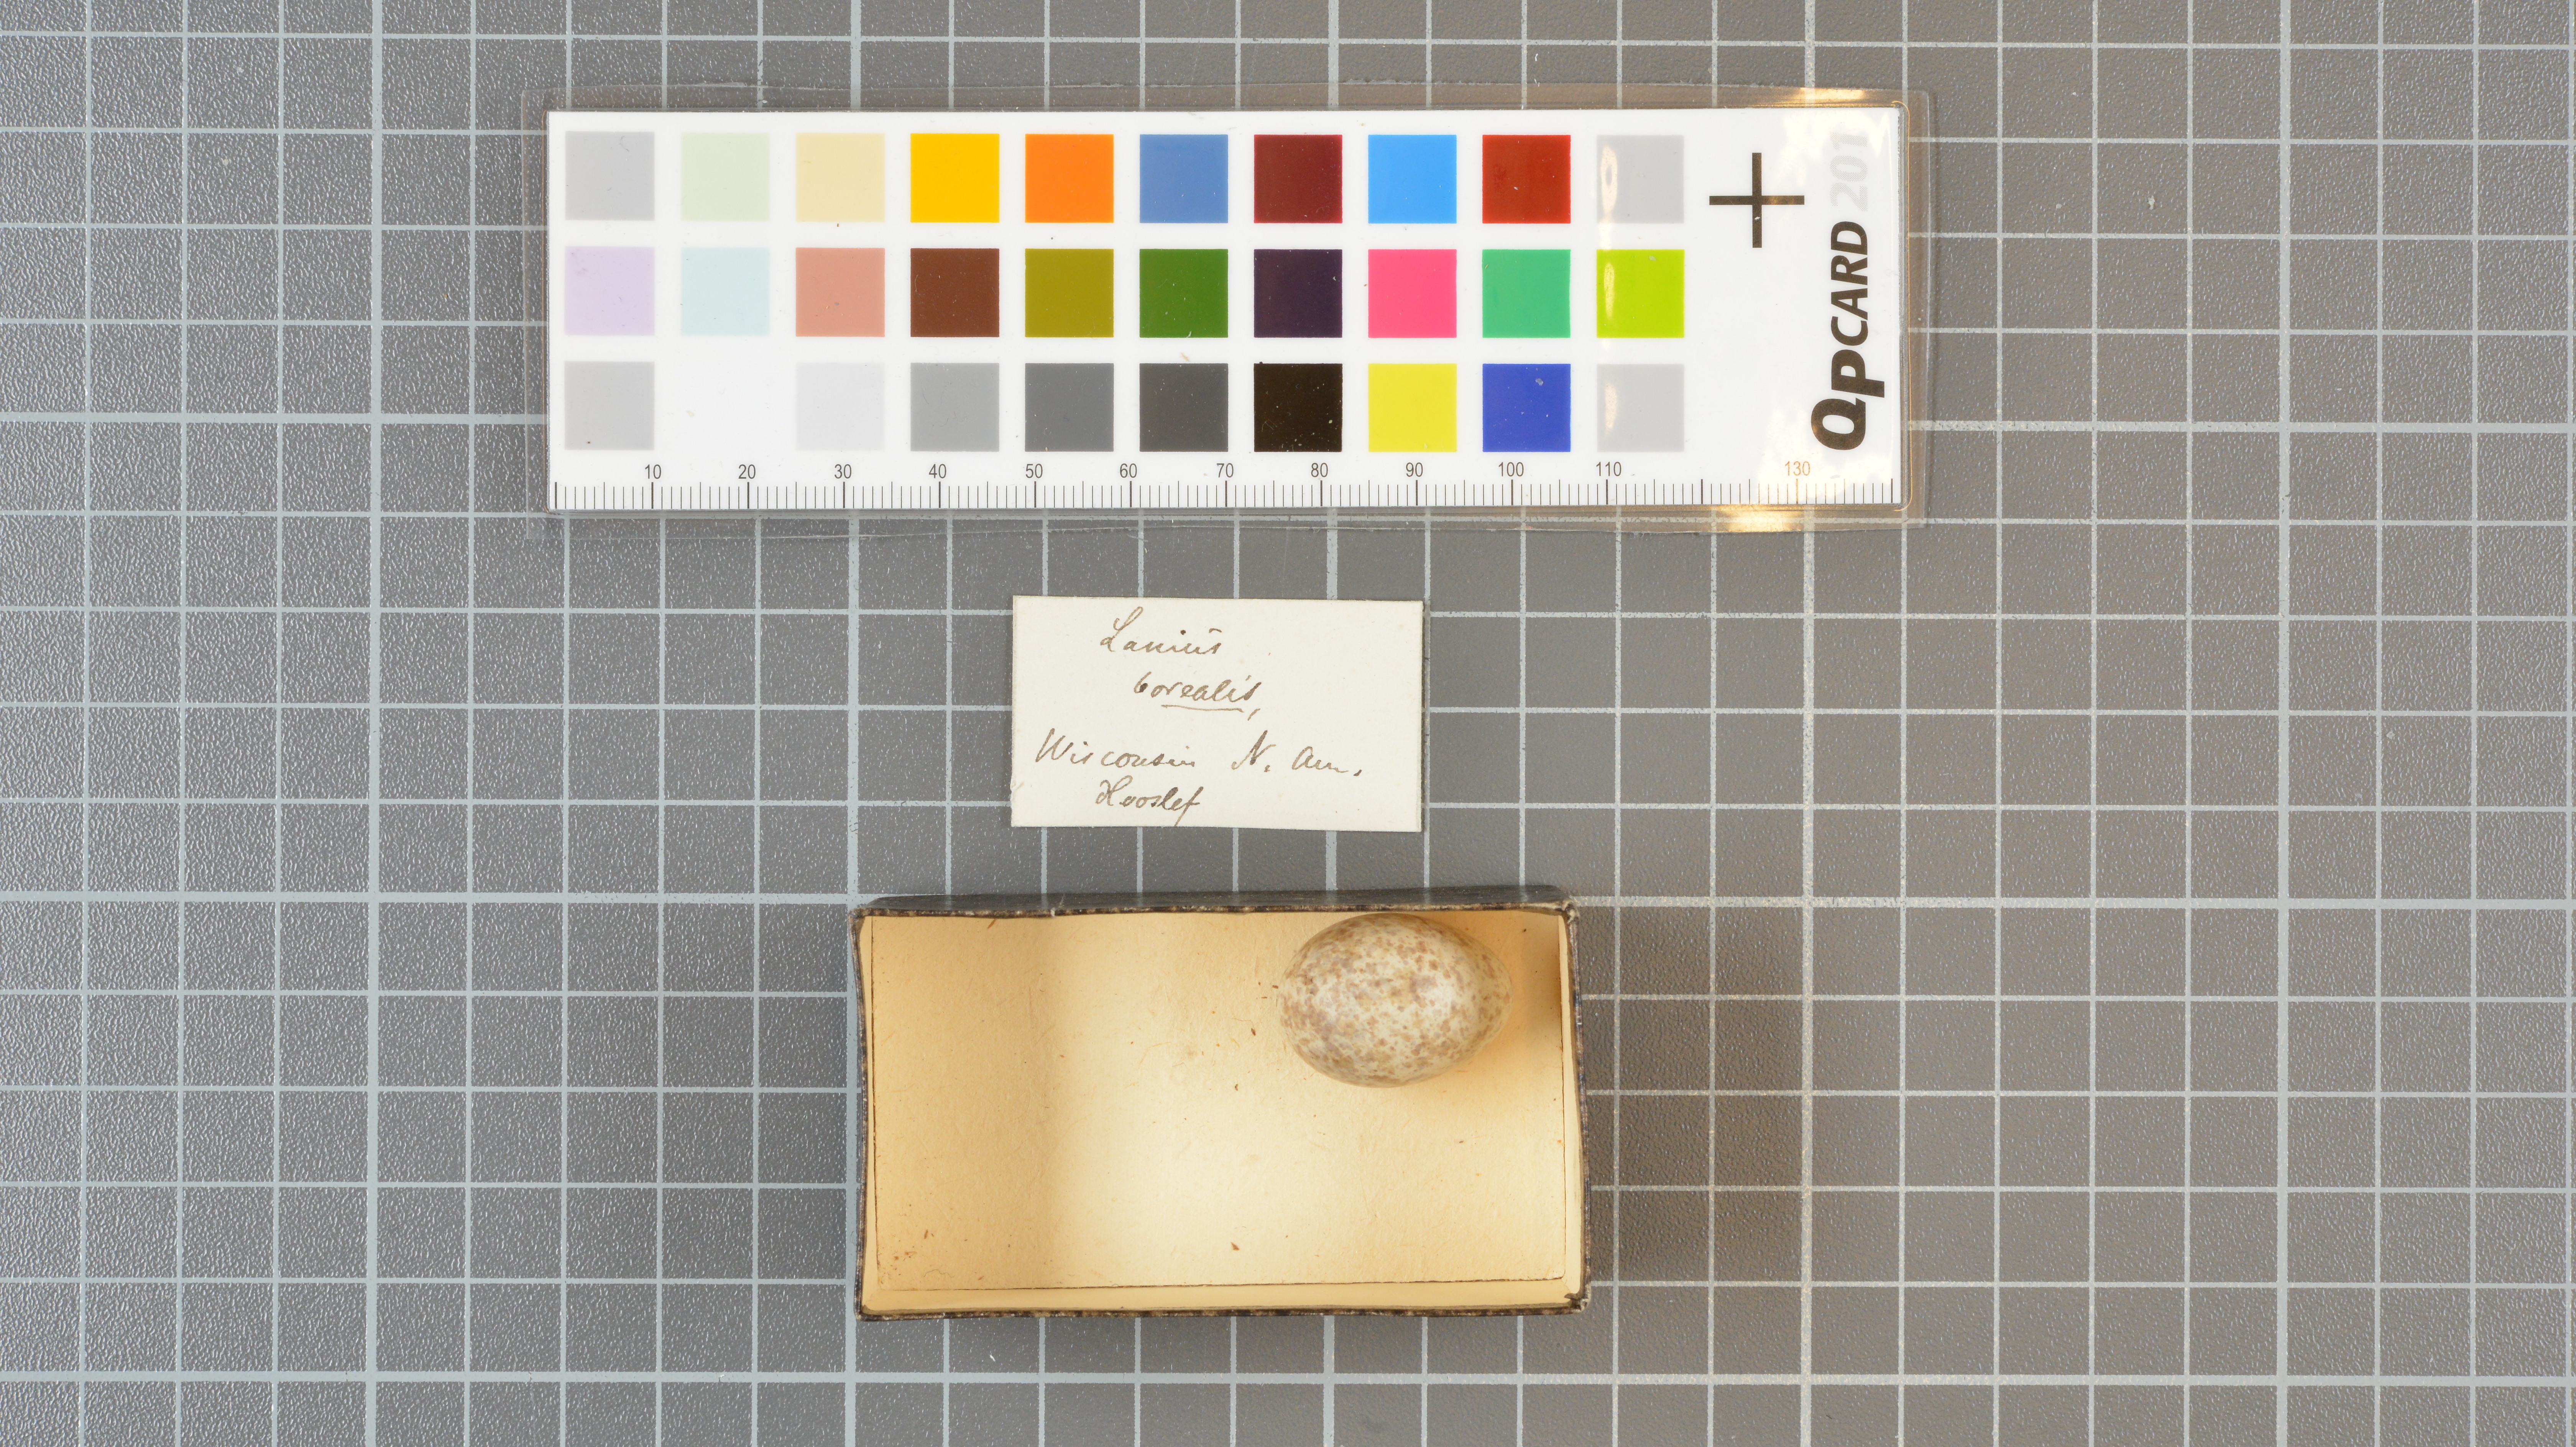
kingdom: Animalia
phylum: Chordata
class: Aves
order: Passeriformes
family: Laniidae
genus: Lanius
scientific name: Lanius excubitor
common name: Great grey shrike
